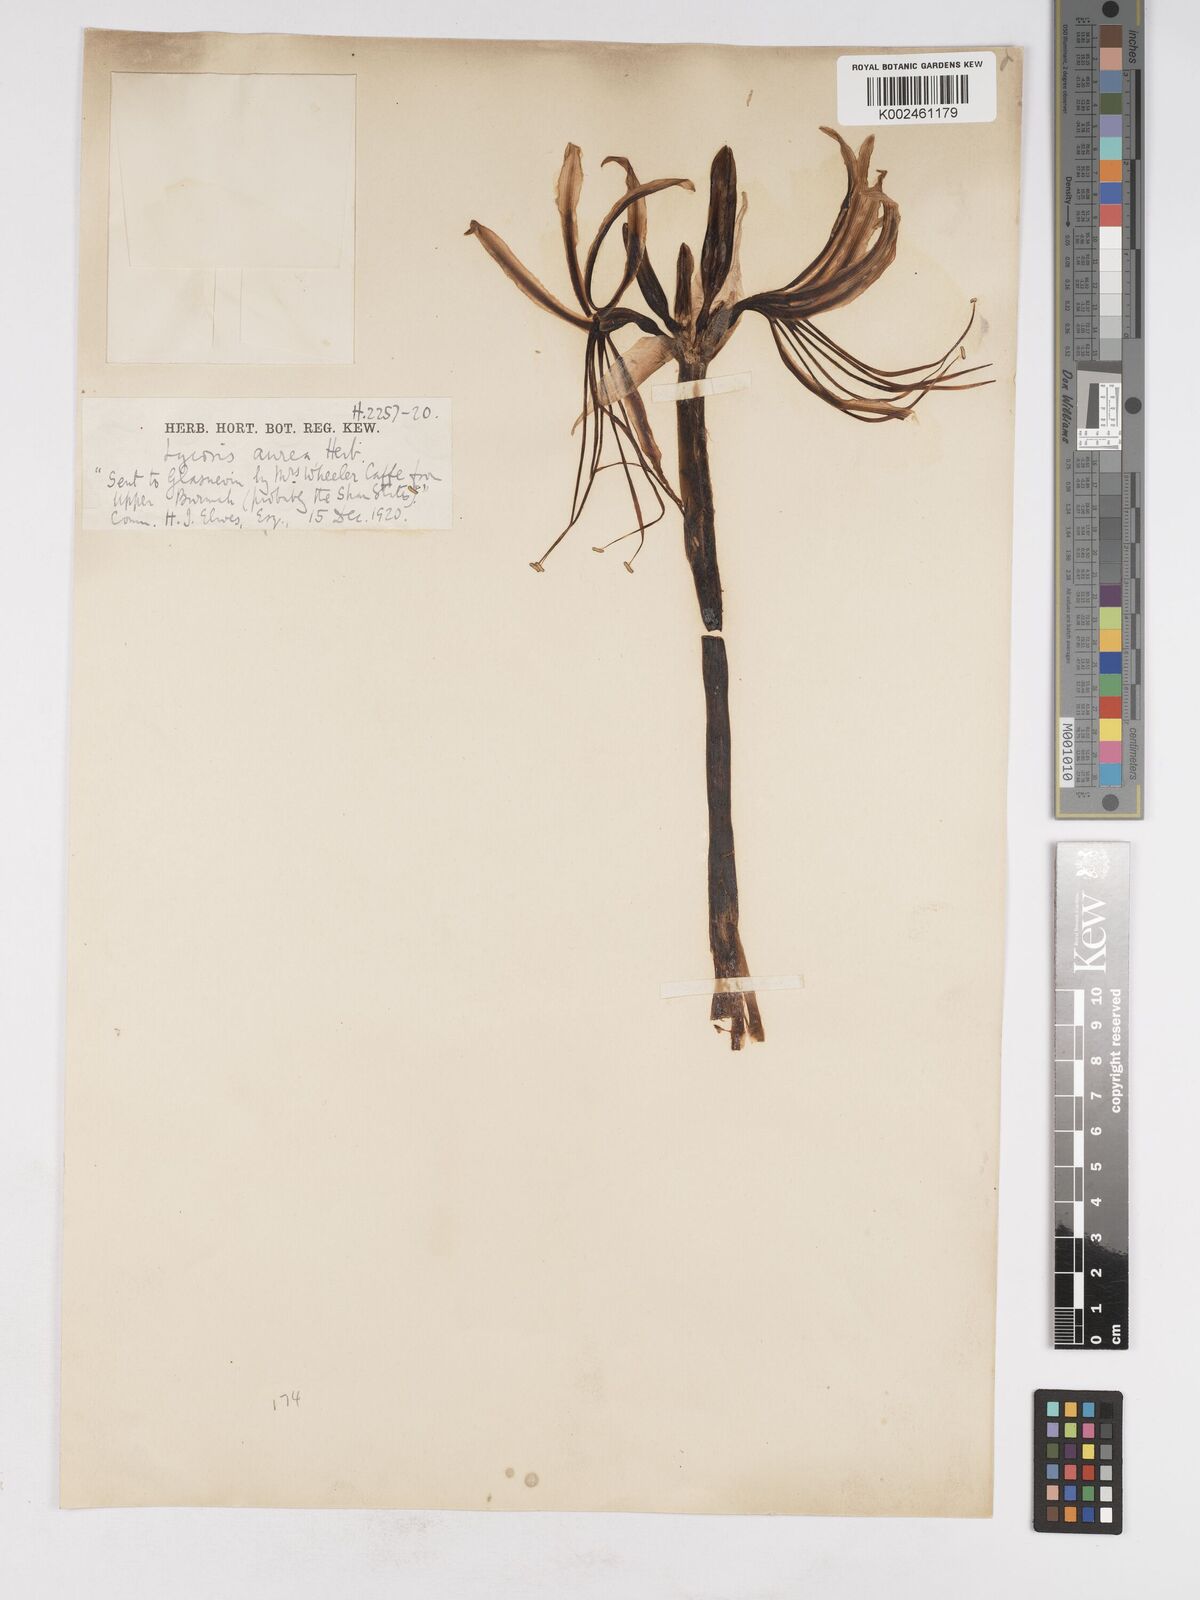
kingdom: Plantae
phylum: Tracheophyta
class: Liliopsida
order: Asparagales
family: Amaryllidaceae
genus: Lycoris
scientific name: Lycoris aurea
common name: Golden hurricane-lily
